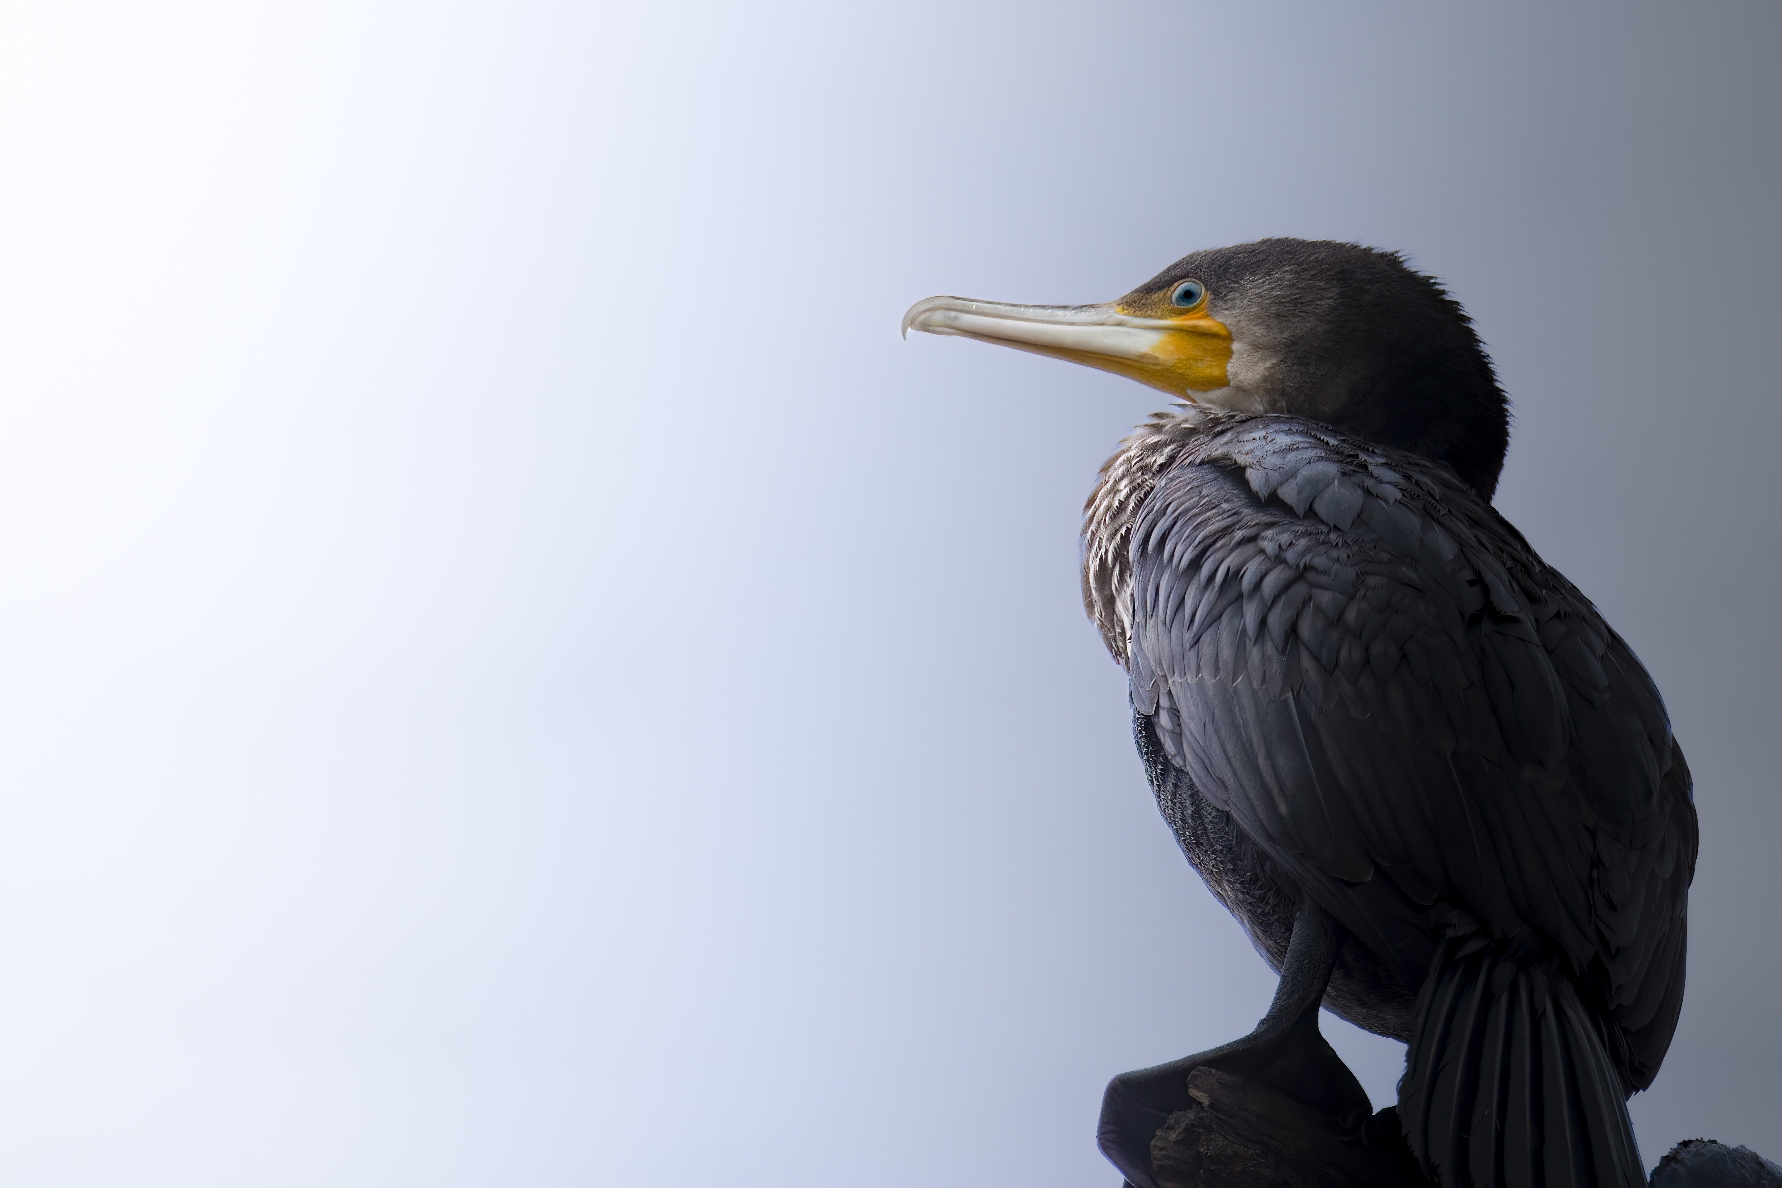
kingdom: Animalia
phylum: Chordata
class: Aves
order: Suliformes
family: Phalacrocoracidae
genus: Phalacrocorax
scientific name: Phalacrocorax carbo
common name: Skarv
